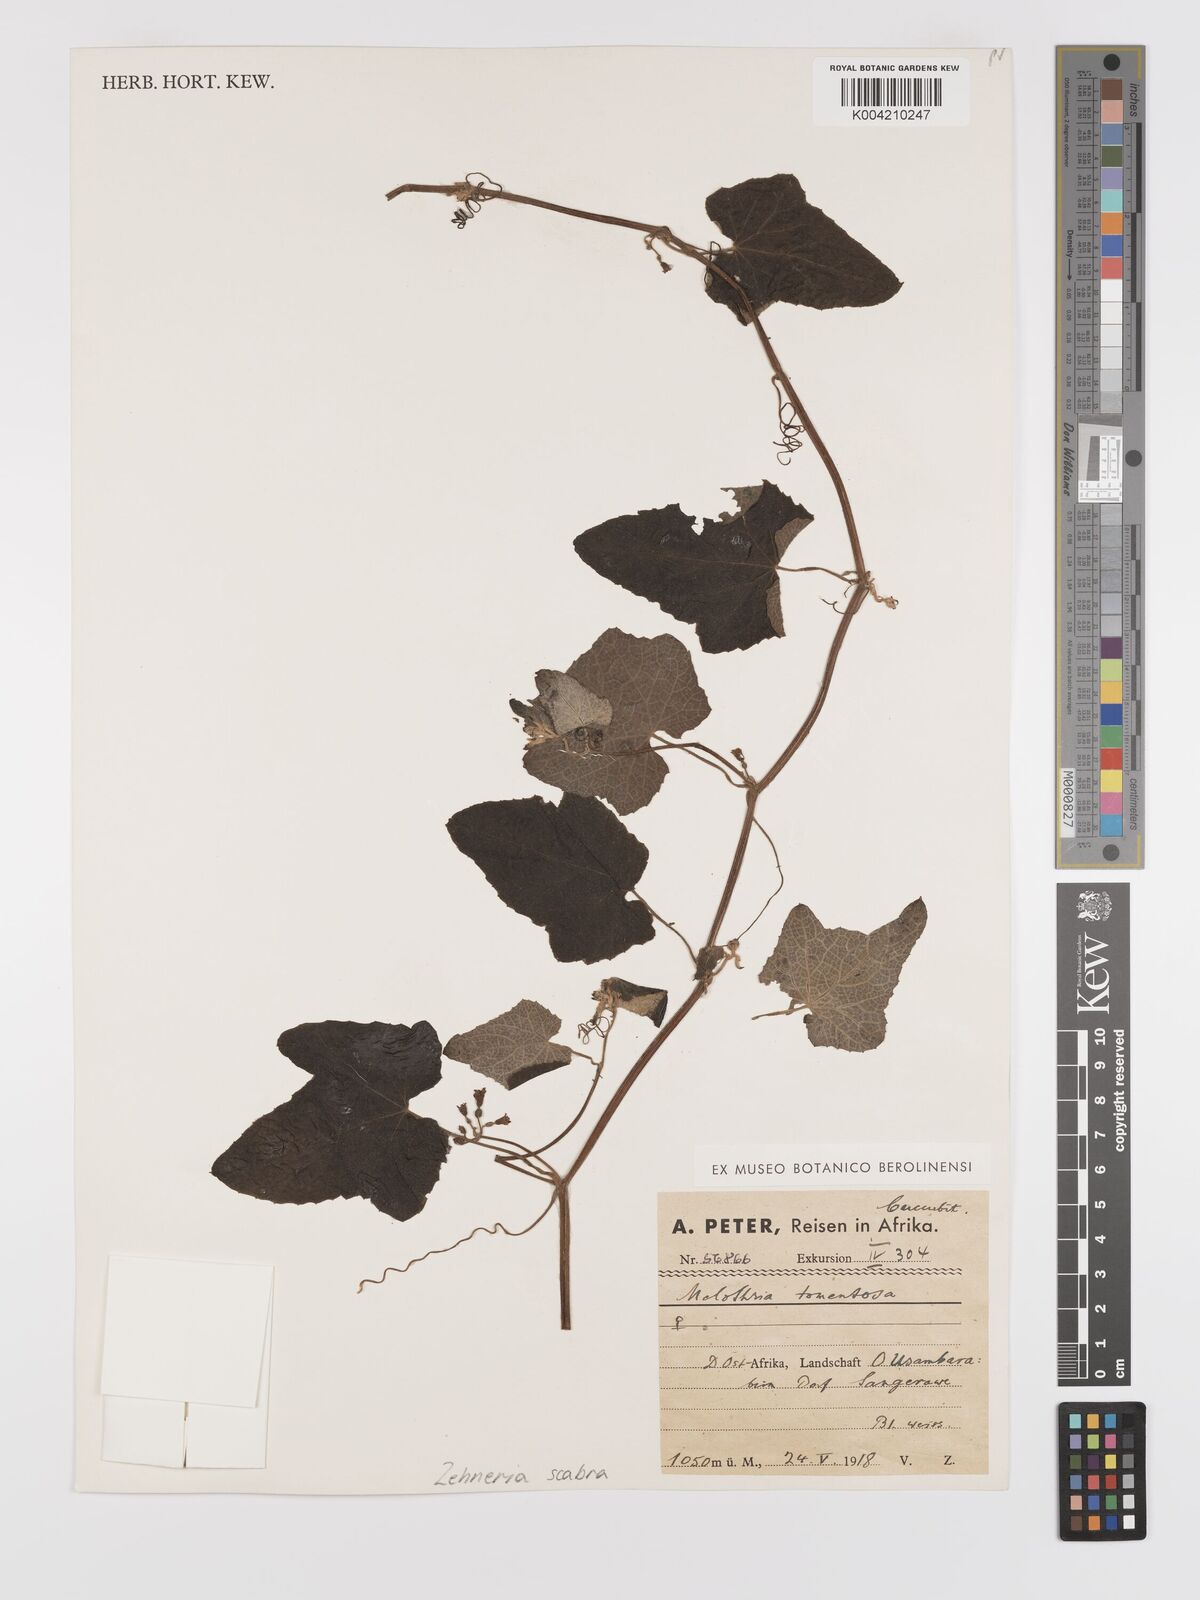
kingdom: Plantae
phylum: Tracheophyta
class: Magnoliopsida
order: Cucurbitales
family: Cucurbitaceae
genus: Zehneria
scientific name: Zehneria scabra
